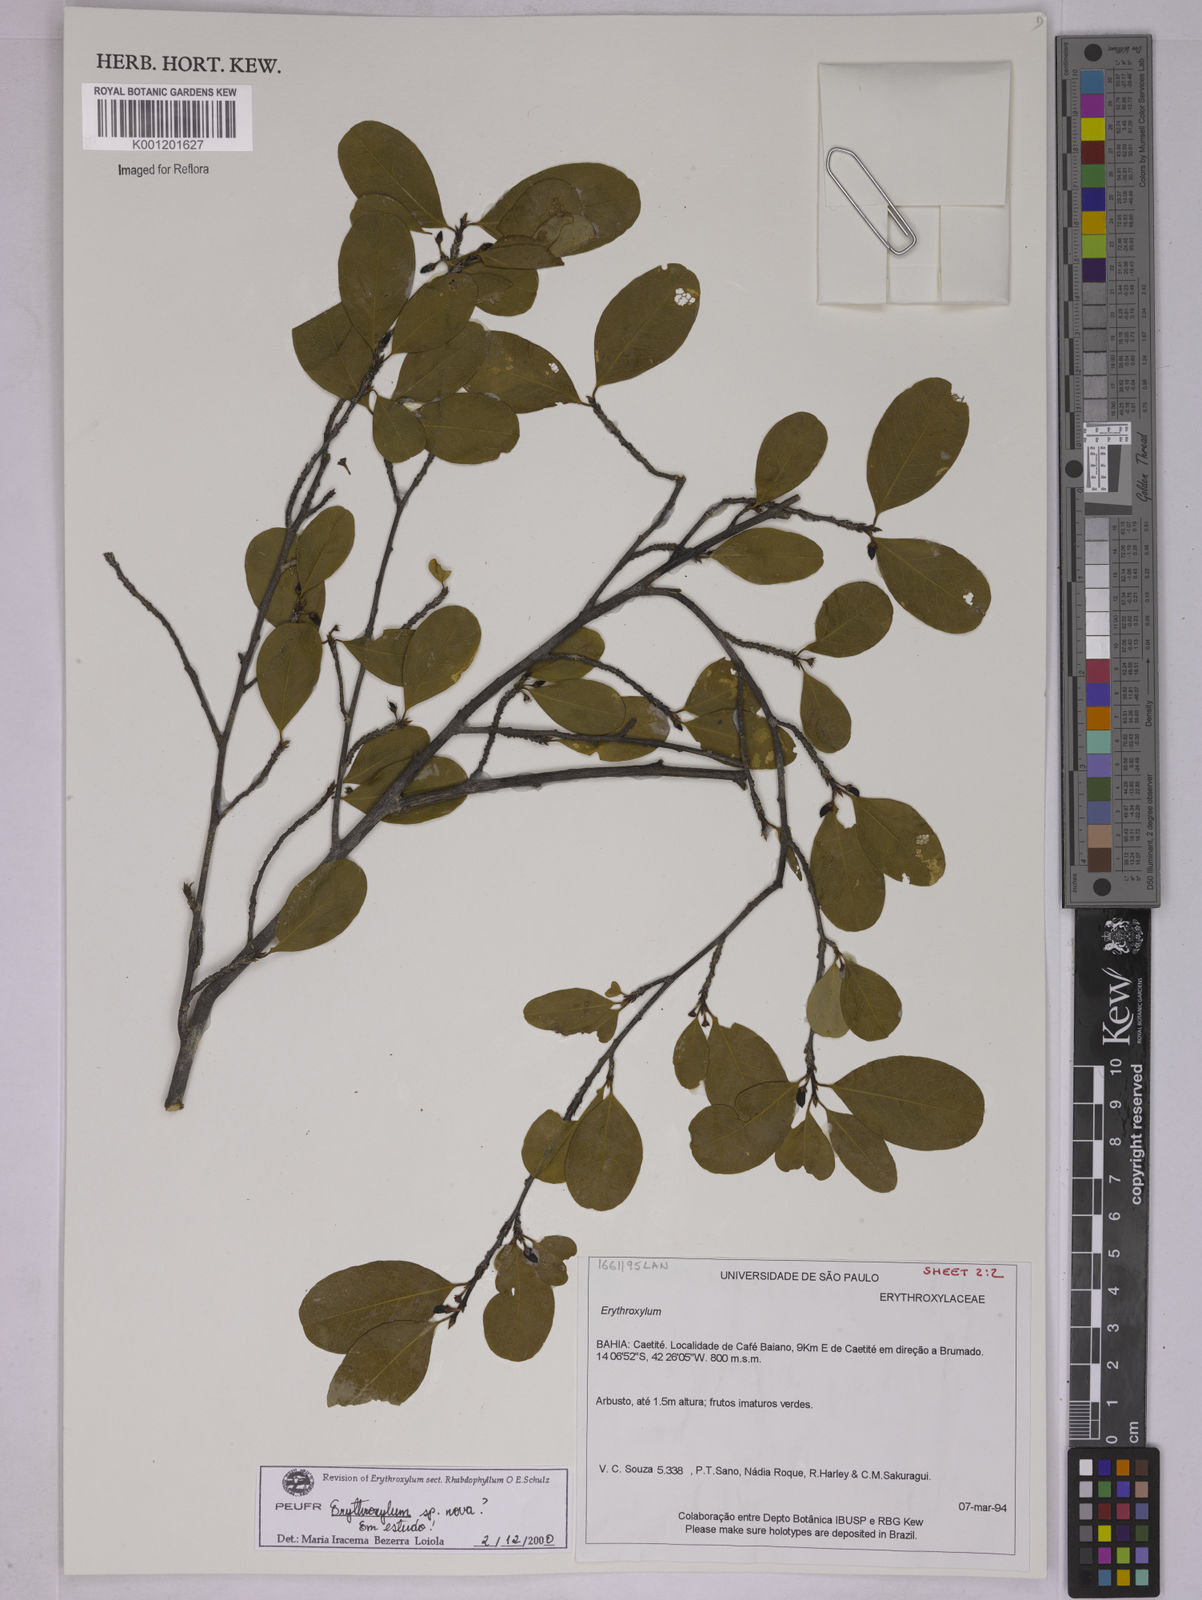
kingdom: Plantae
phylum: Tracheophyta
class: Magnoliopsida
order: Malpighiales
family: Erythroxylaceae
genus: Erythroxylum
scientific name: Erythroxylum
